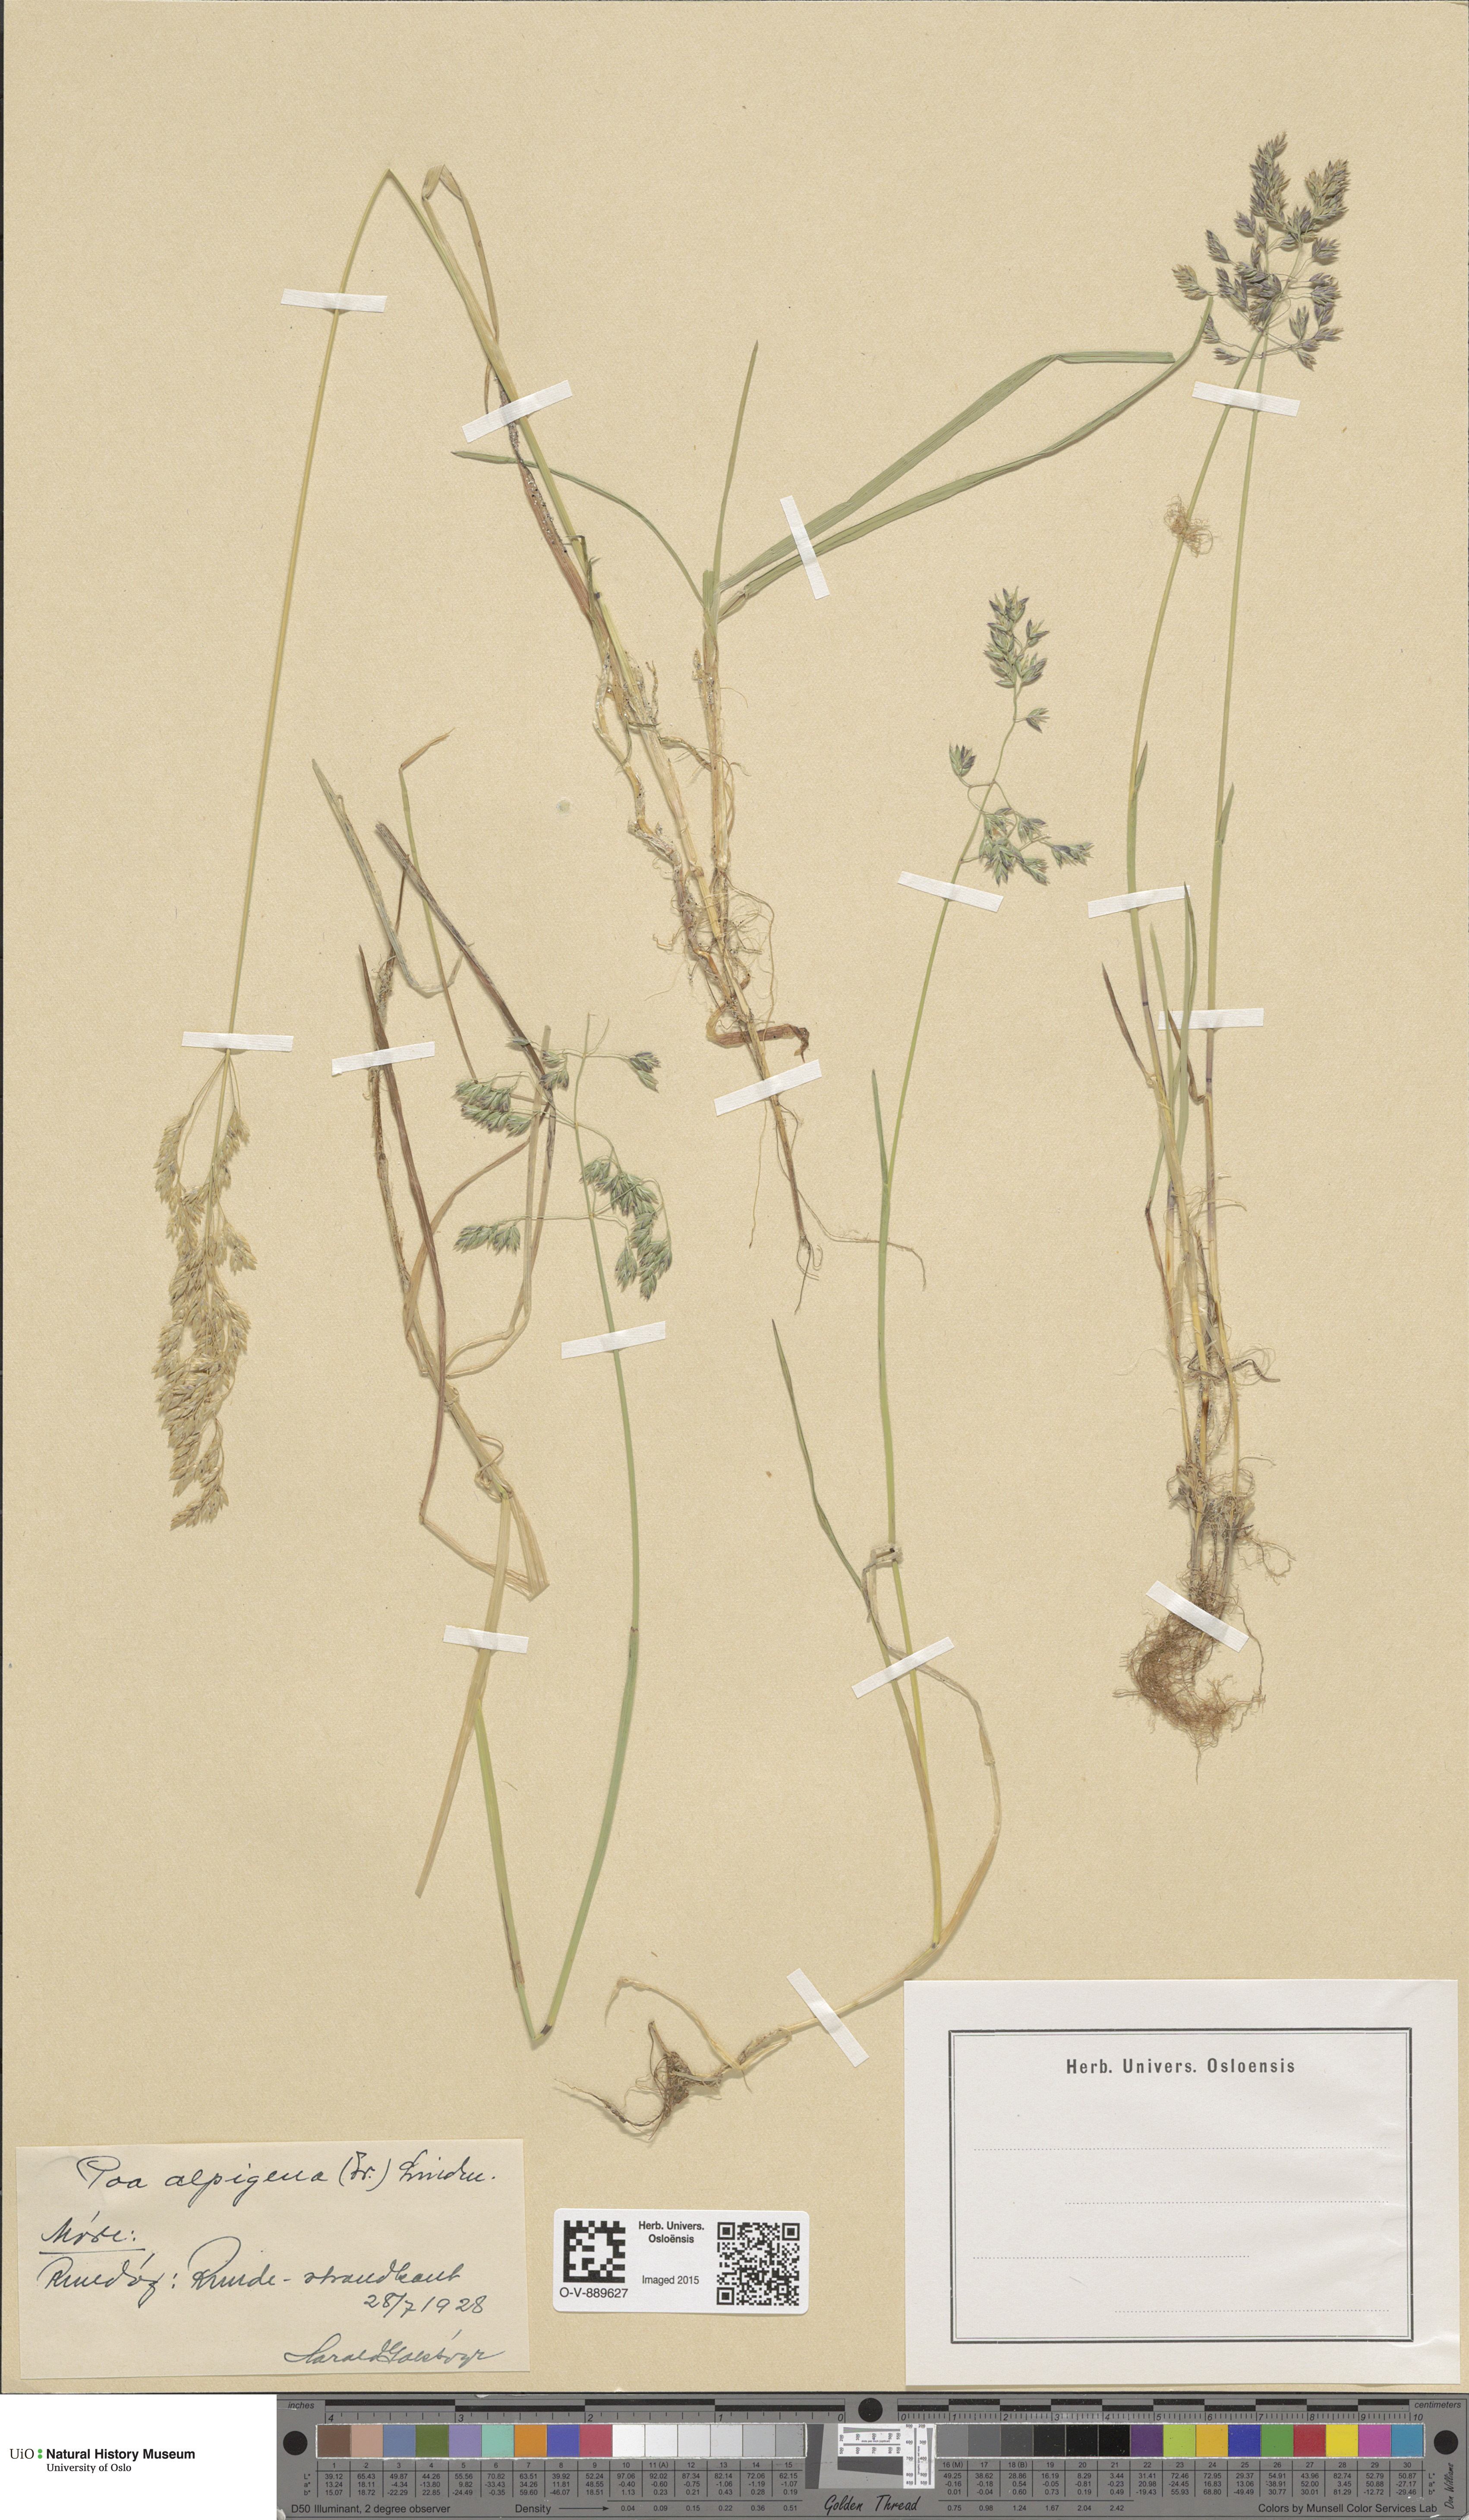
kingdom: Plantae
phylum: Tracheophyta
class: Liliopsida
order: Poales
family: Poaceae
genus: Poa
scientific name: Poa alpigena
